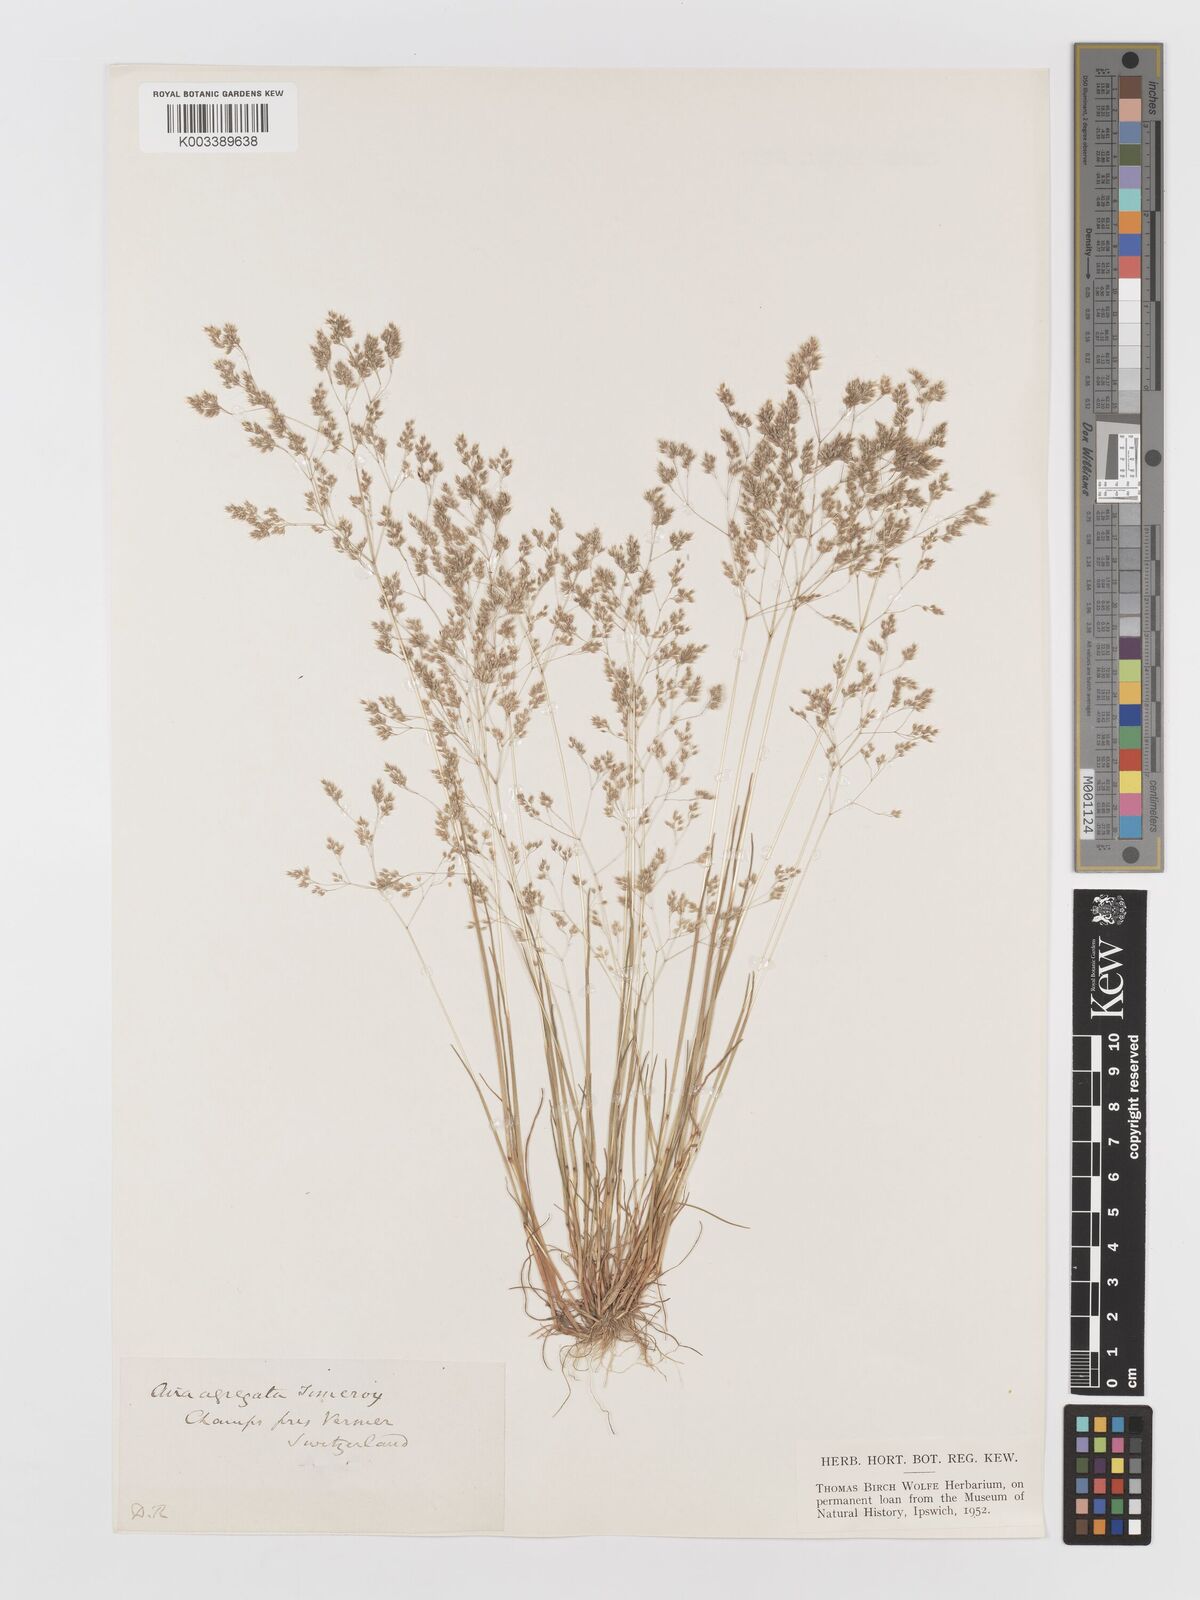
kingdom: Plantae
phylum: Tracheophyta
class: Liliopsida
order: Poales
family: Poaceae
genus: Aira
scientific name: Aira caryophyllea
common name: Silver hairgrass
